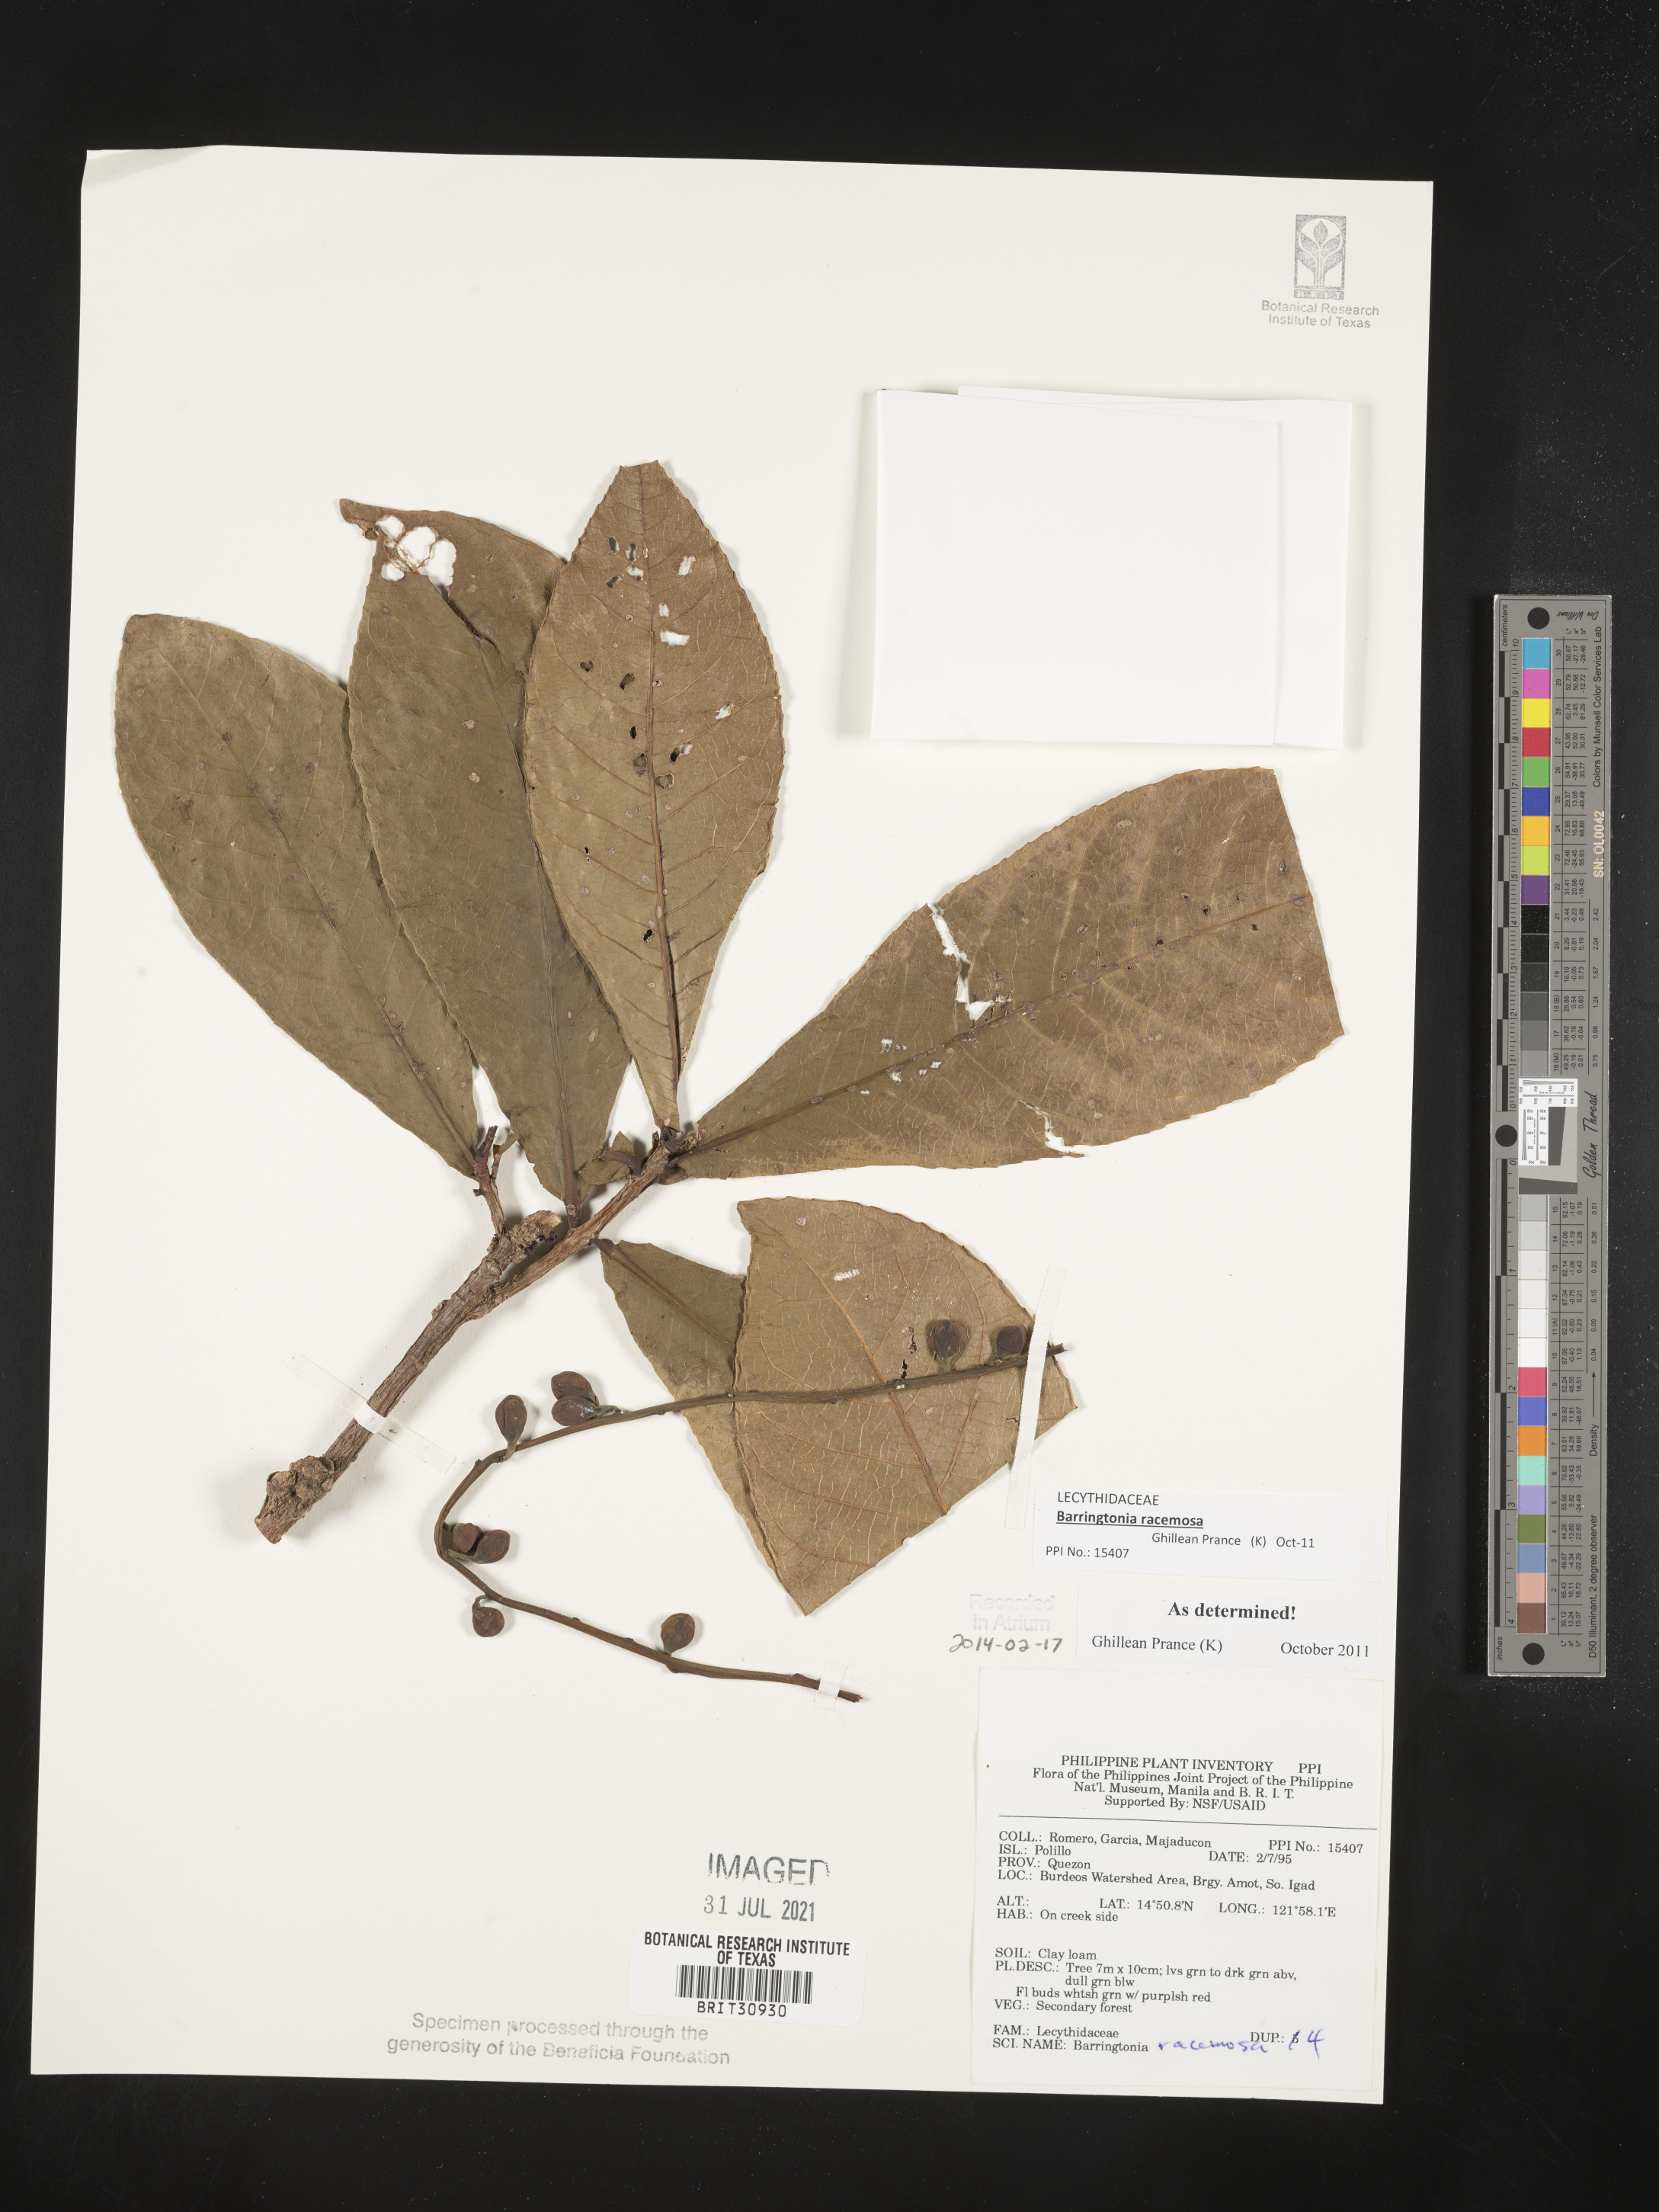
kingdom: Plantae
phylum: Tracheophyta
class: Magnoliopsida
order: Ericales
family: Lecythidaceae
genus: Barringtonia
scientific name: Barringtonia racemosa
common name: Brackwater mangrove
